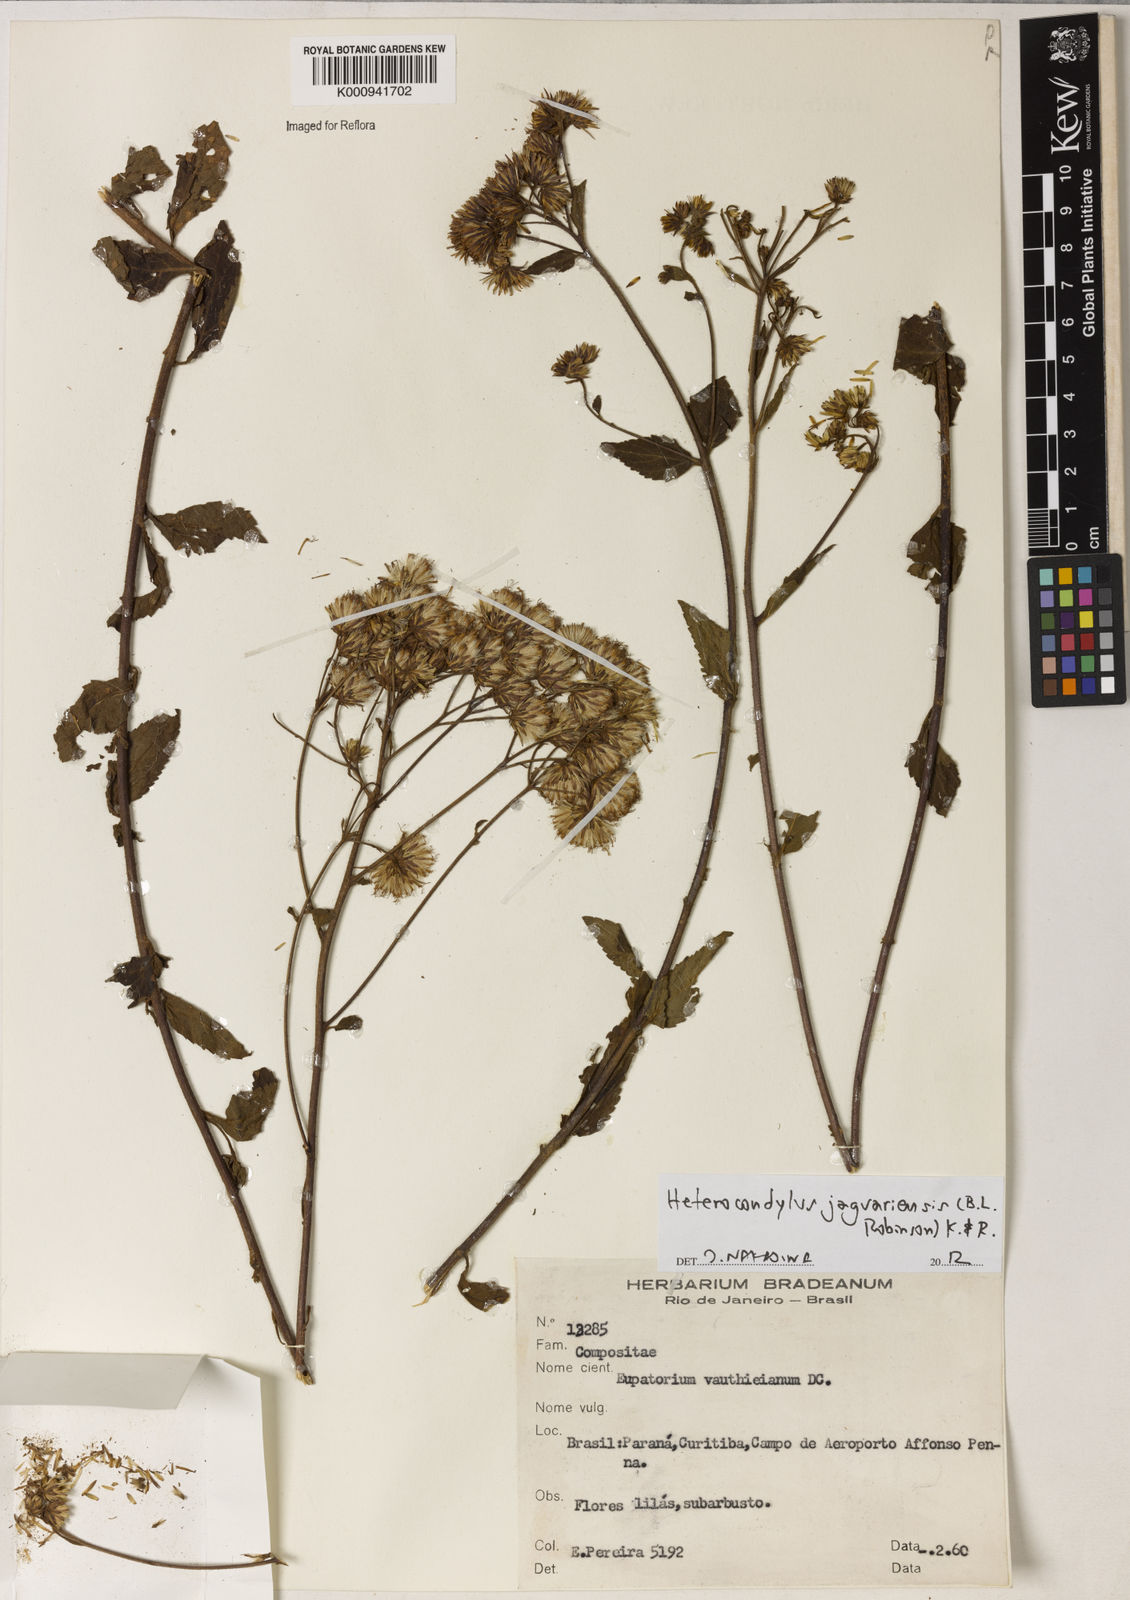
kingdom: Plantae
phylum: Tracheophyta
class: Magnoliopsida
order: Asterales
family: Asteraceae
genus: Heterocondylus
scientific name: Heterocondylus jaraguensis
